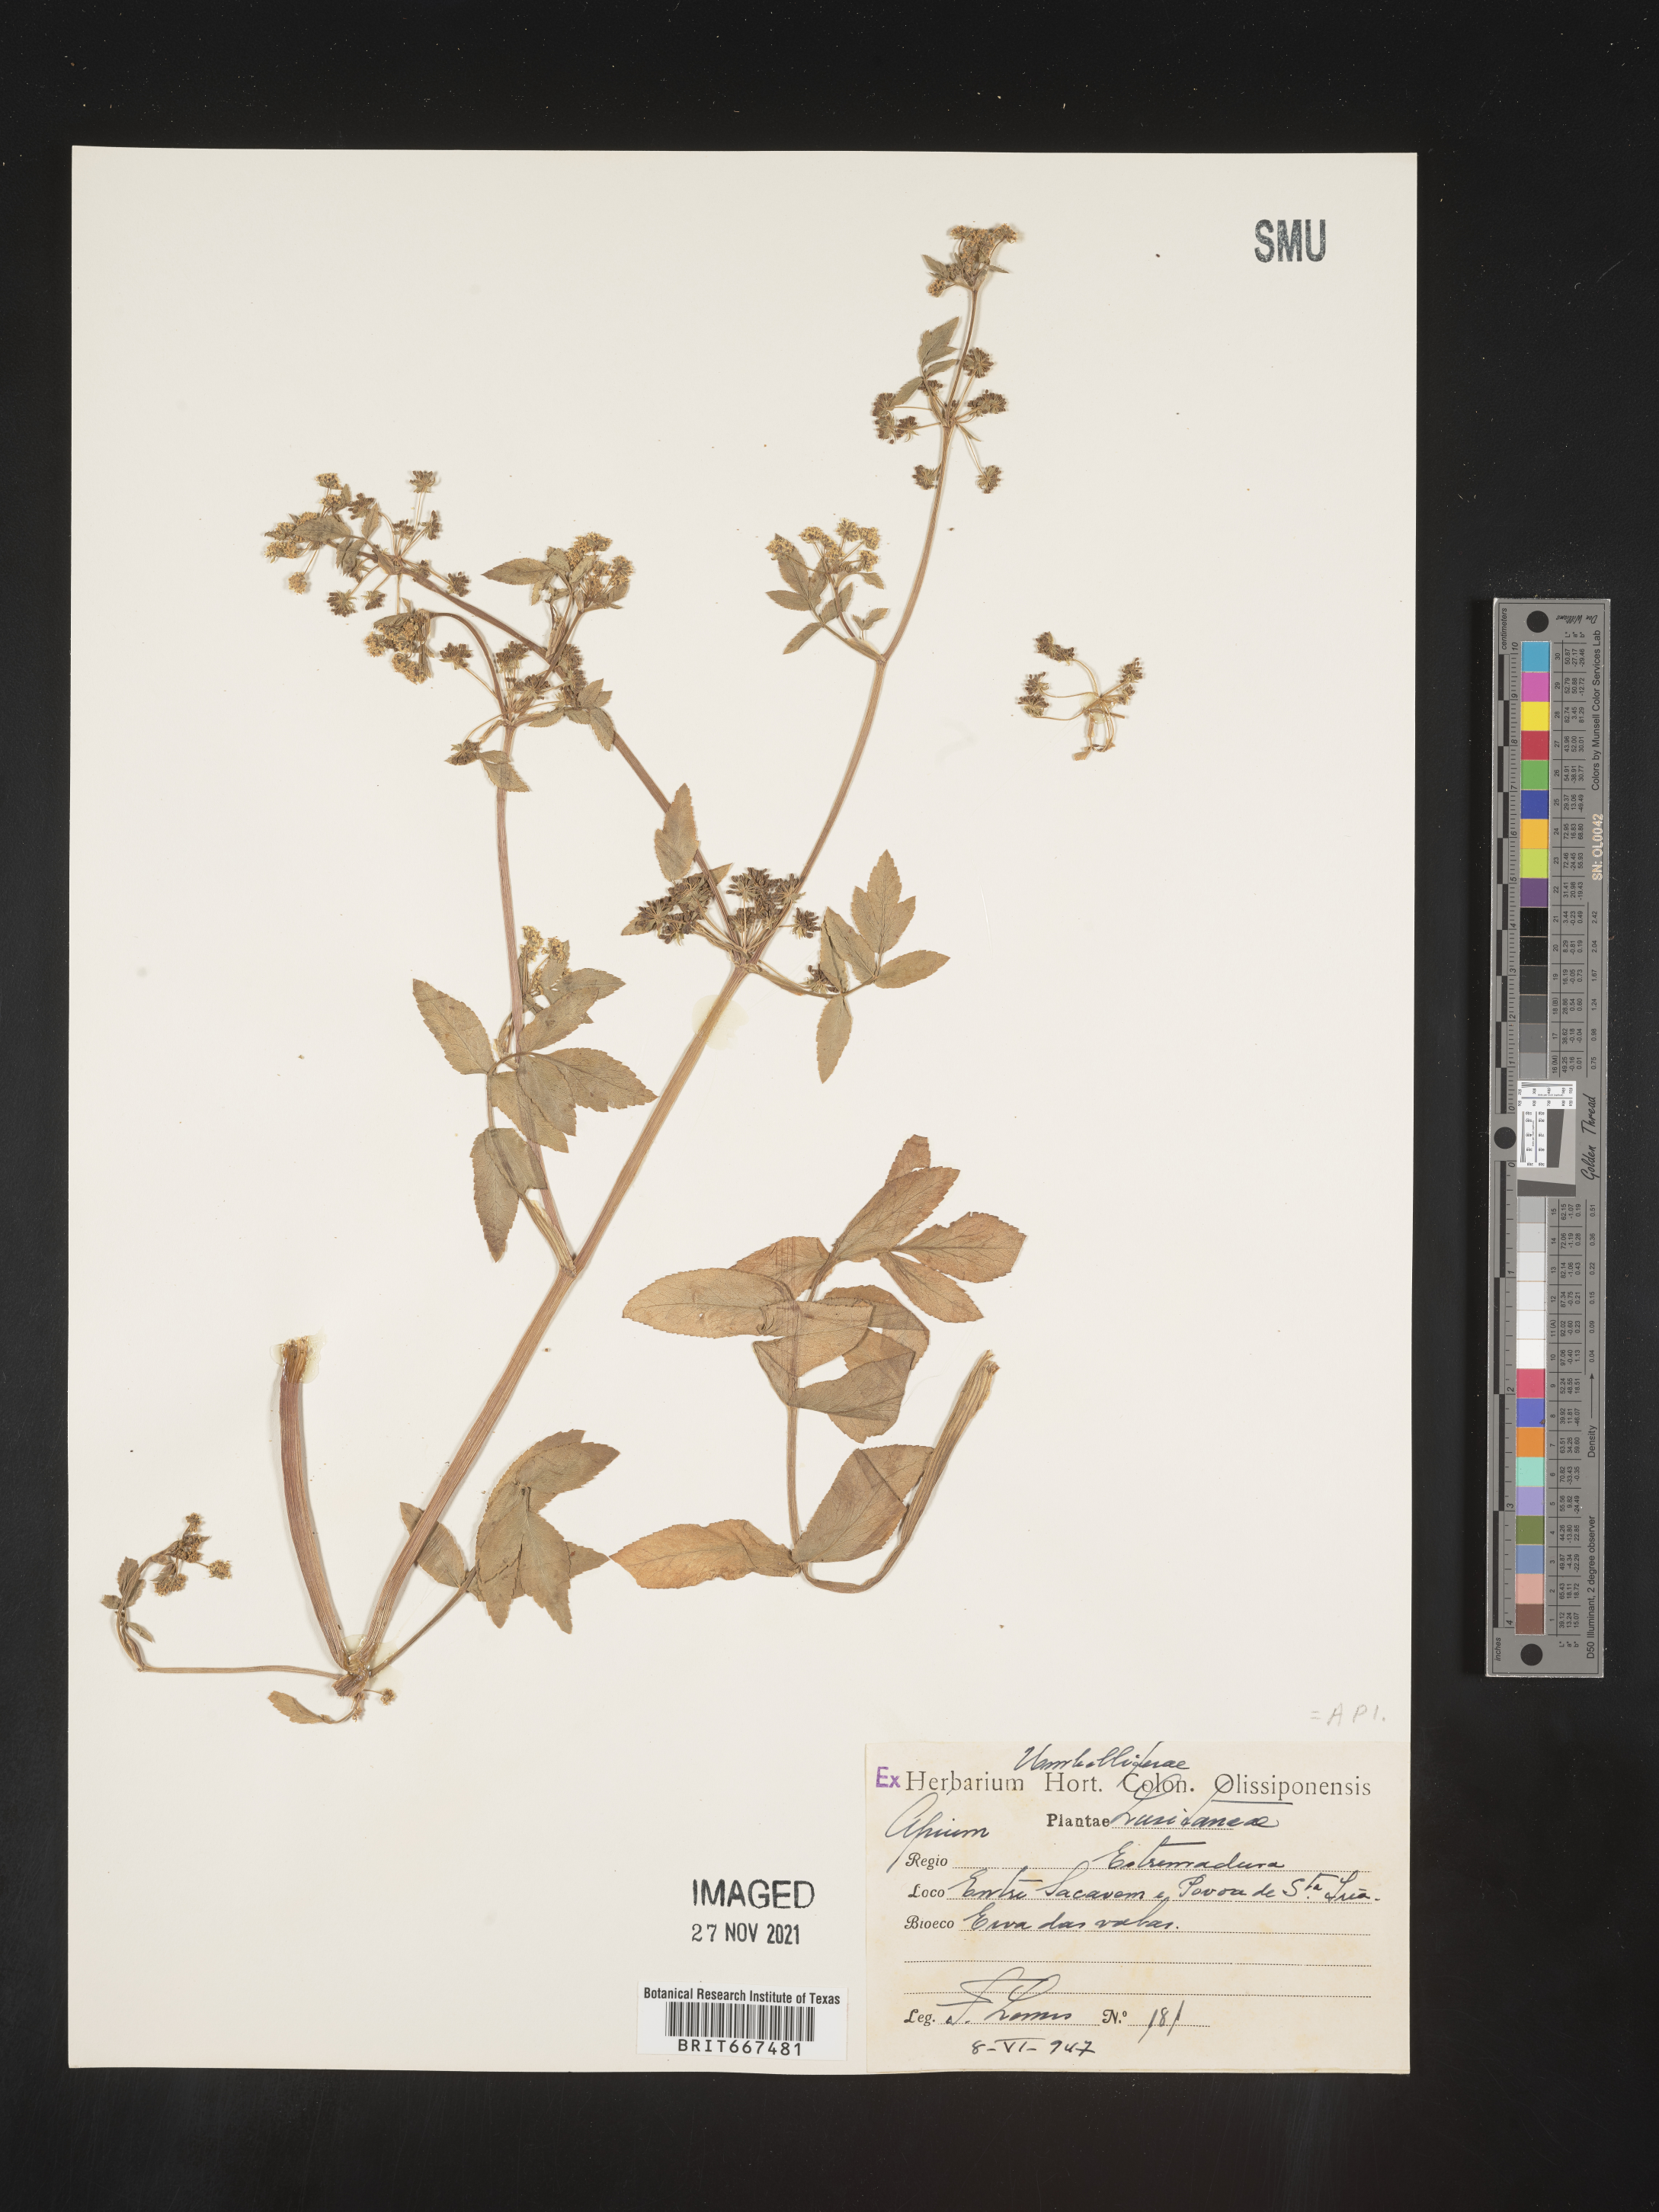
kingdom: Plantae
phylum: Tracheophyta
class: Magnoliopsida
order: Apiales
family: Apiaceae
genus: Apium
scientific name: Apium
